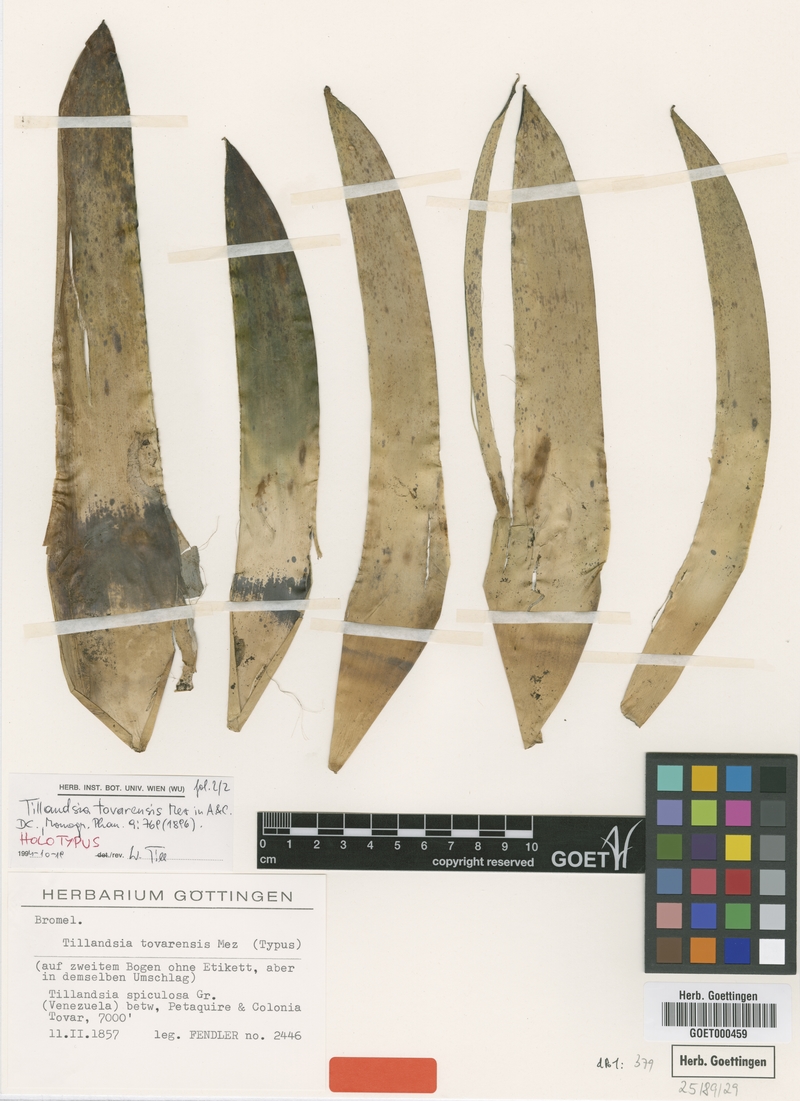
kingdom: Plantae
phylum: Tracheophyta
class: Liliopsida
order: Poales
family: Bromeliaceae
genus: Tillandsia
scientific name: Tillandsia tovarensis
